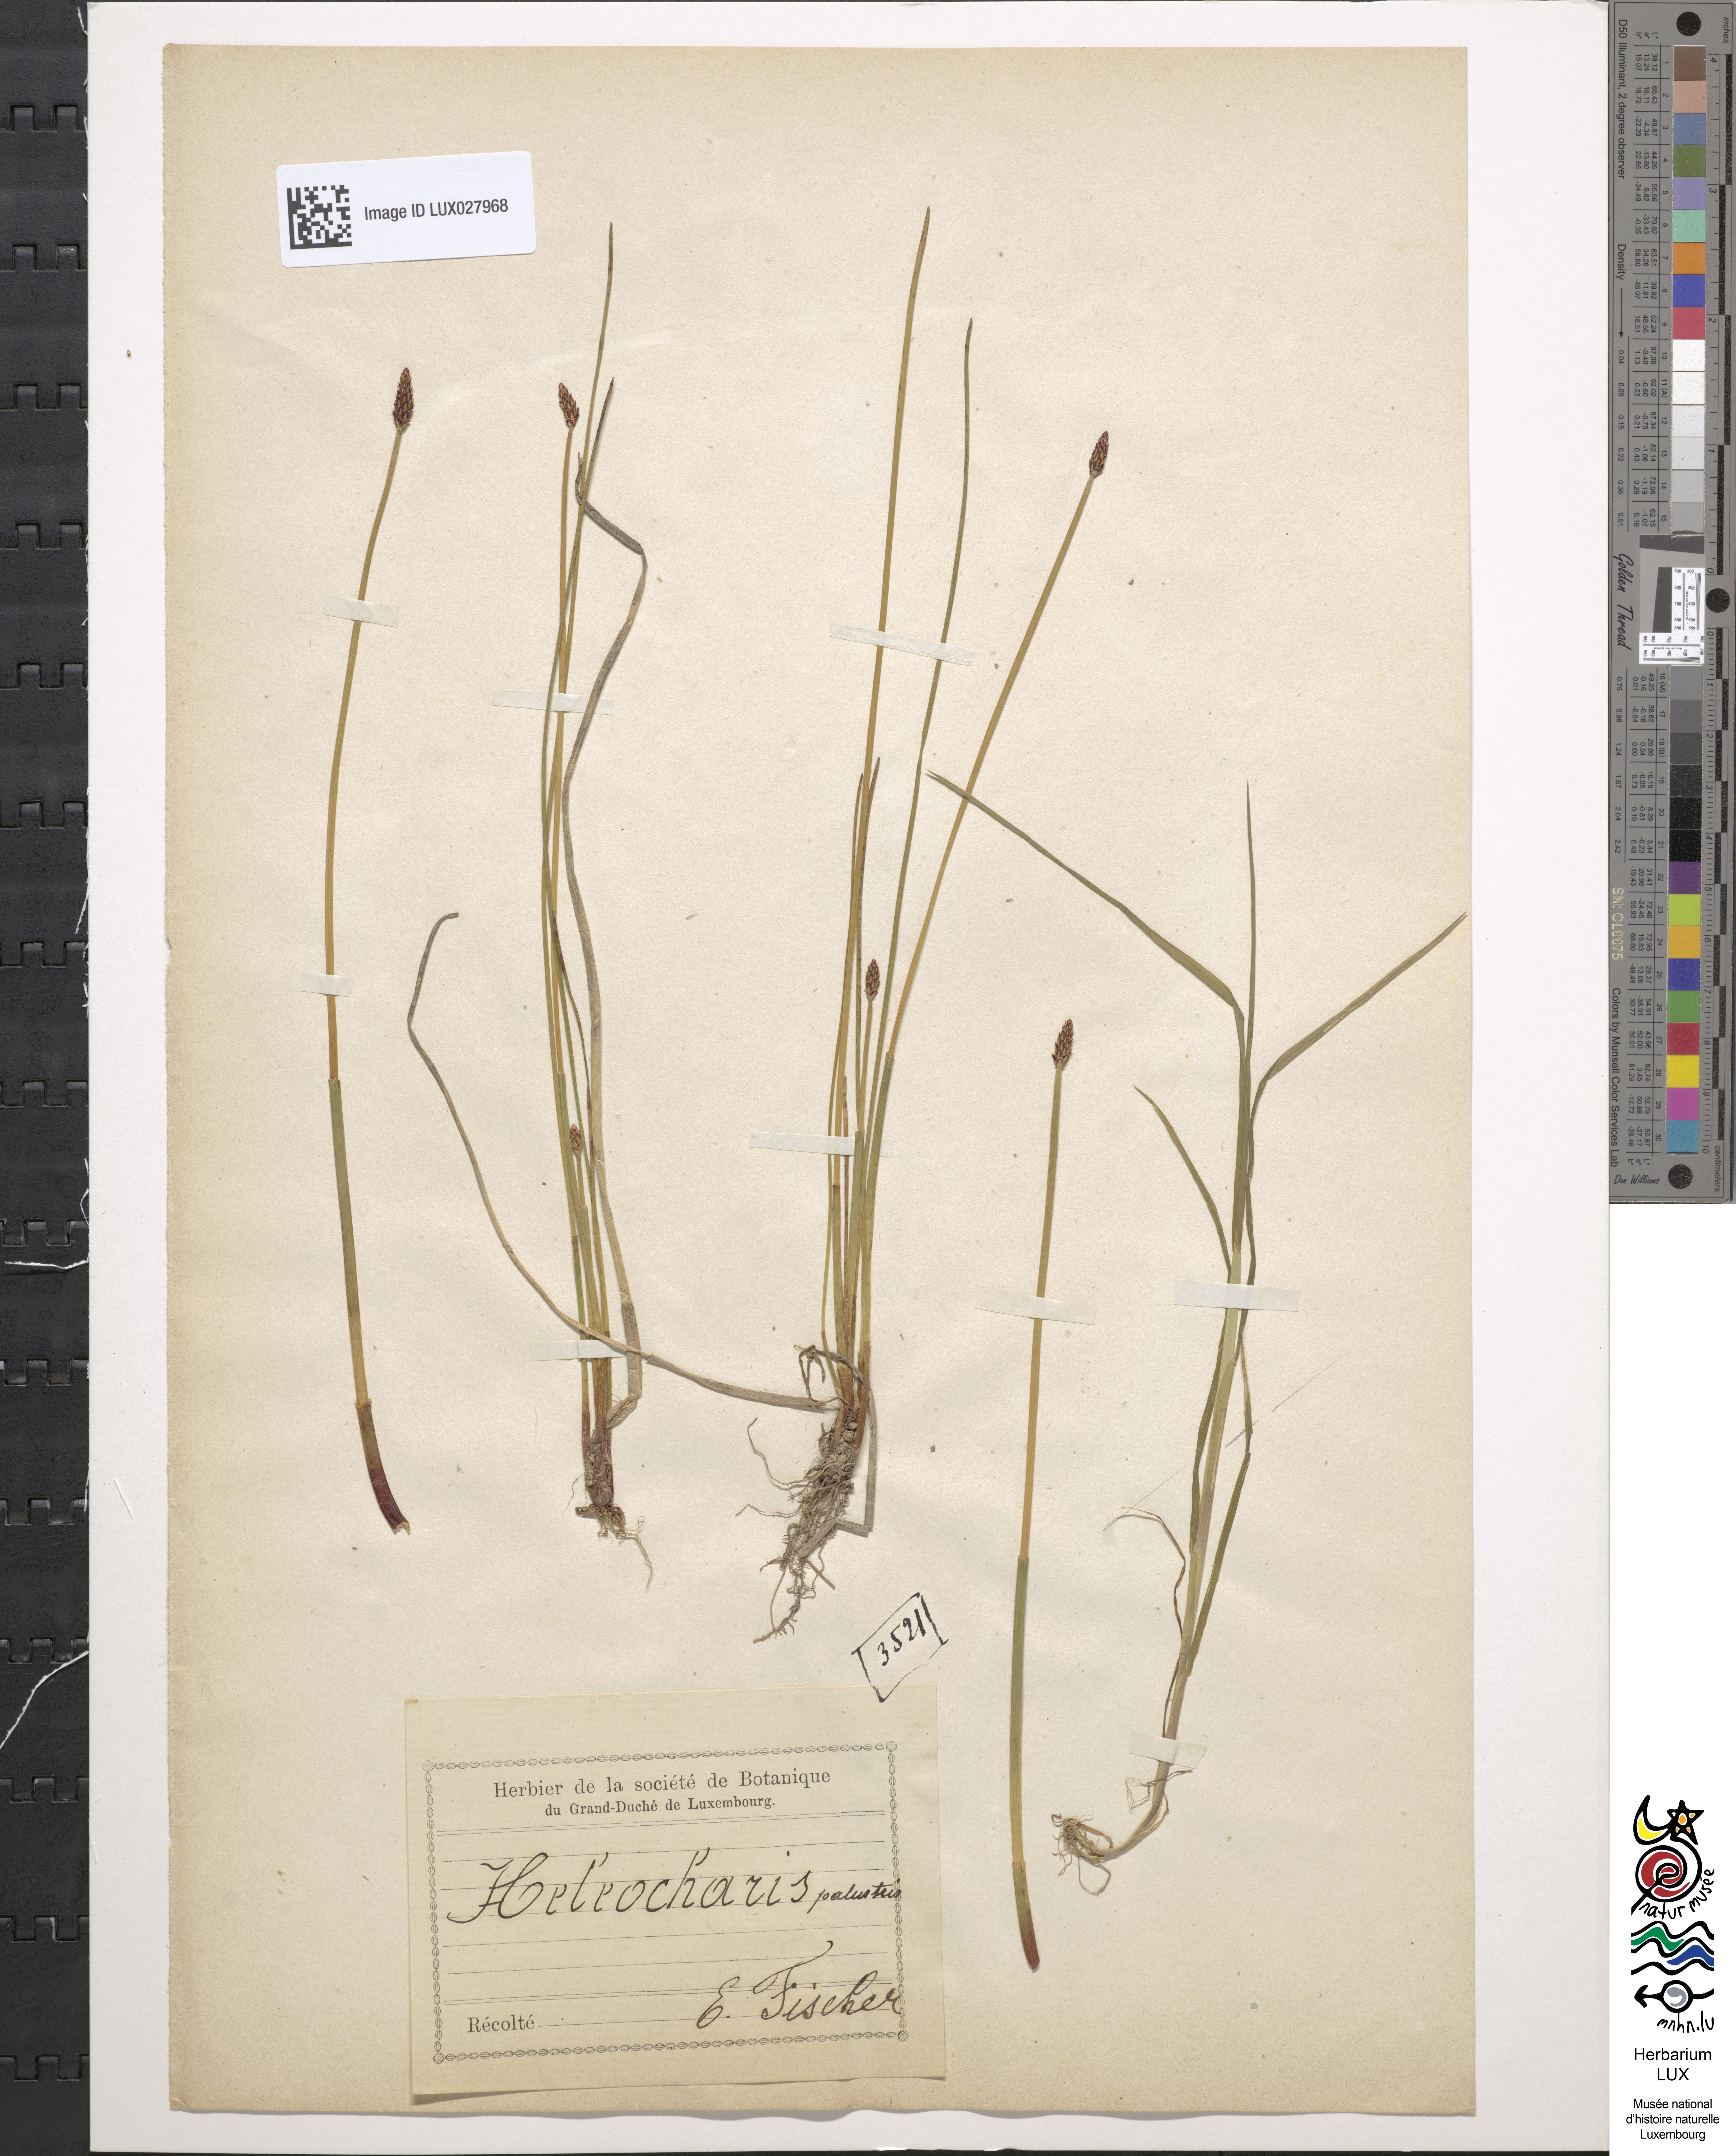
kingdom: Plantae
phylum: Tracheophyta
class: Liliopsida
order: Poales
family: Cyperaceae
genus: Eleocharis
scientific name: Eleocharis palustris
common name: Common spike-rush
